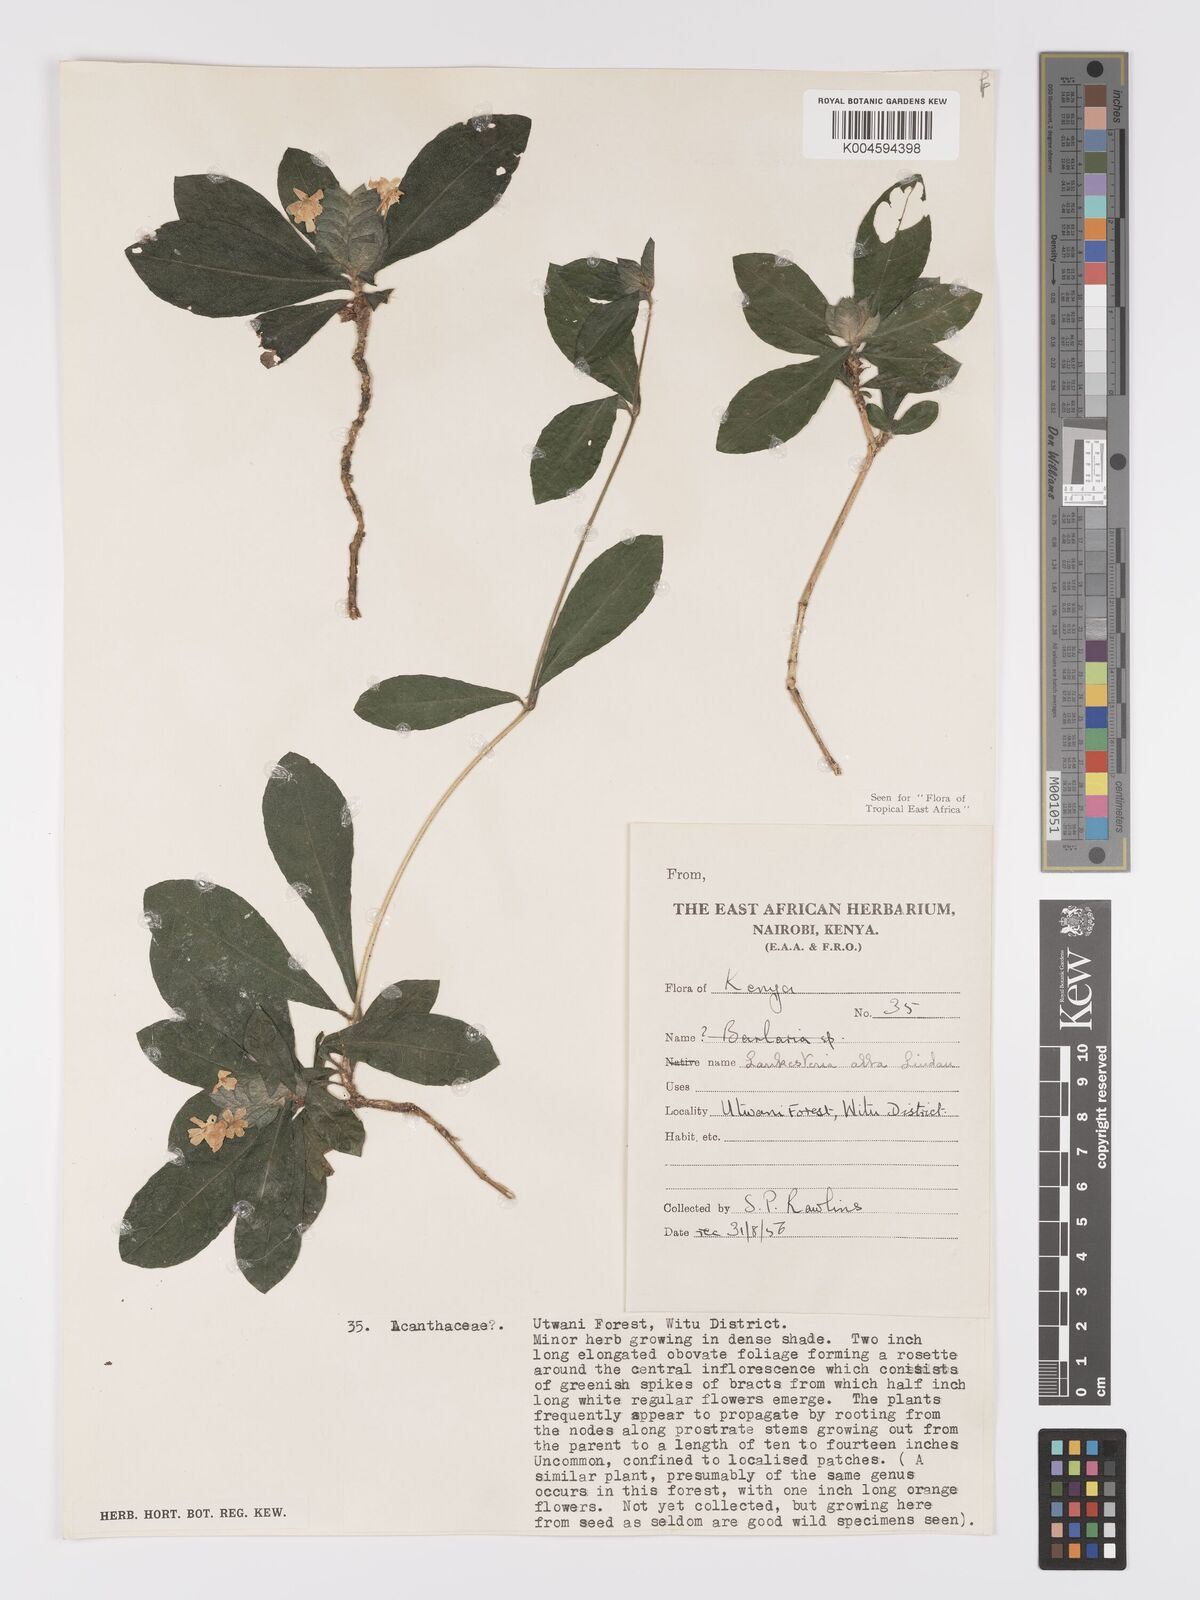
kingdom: Plantae
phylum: Tracheophyta
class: Magnoliopsida
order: Lamiales
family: Acanthaceae
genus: Lankesteria
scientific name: Lankesteria alba
